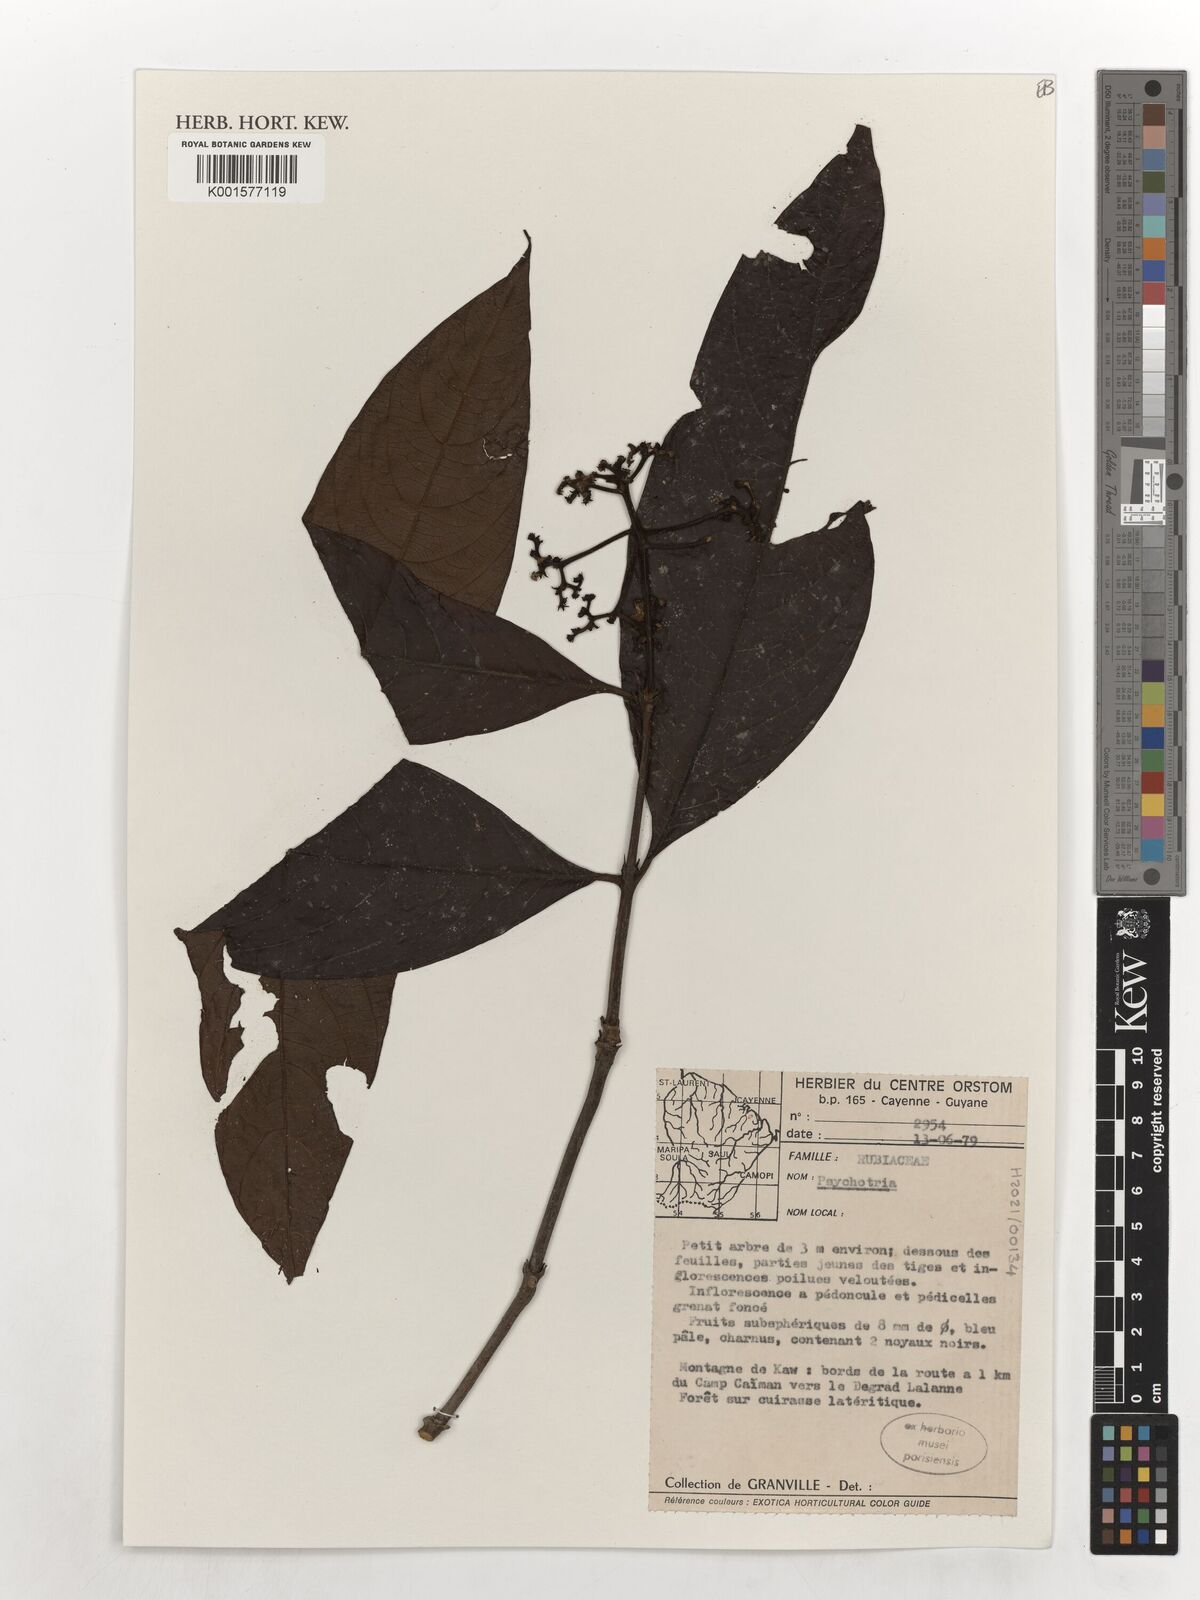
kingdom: Plantae
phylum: Tracheophyta
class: Magnoliopsida
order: Gentianales
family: Rubiaceae
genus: Psychotria
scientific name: Psychotria
